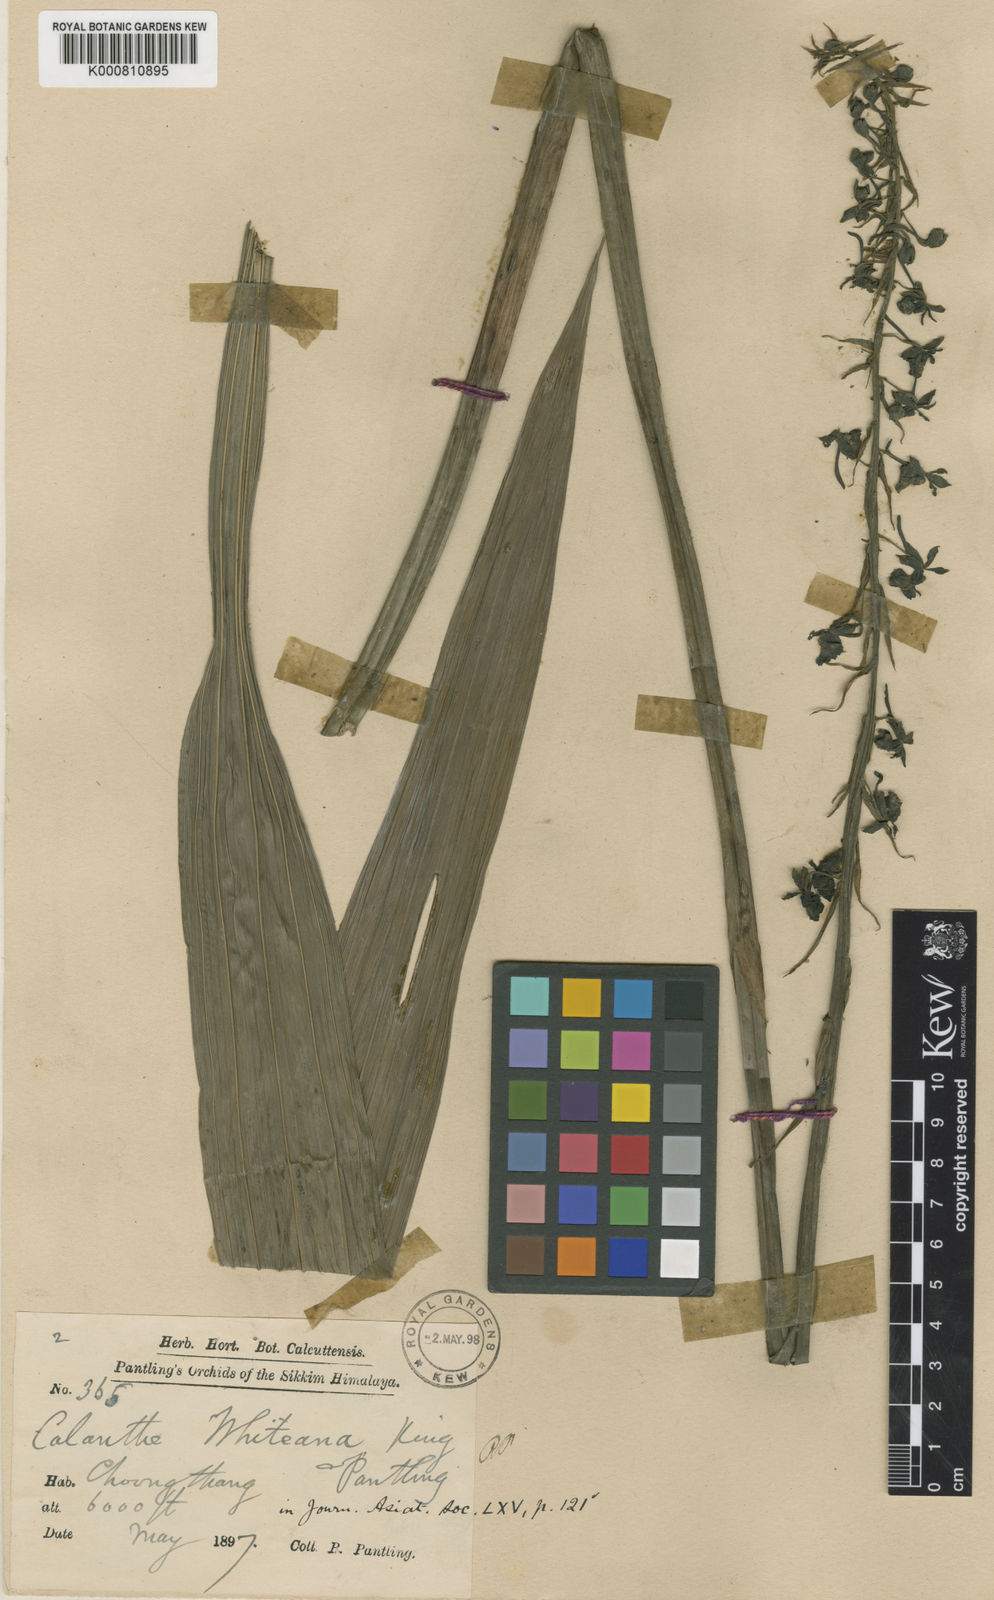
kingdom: Plantae
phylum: Tracheophyta
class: Liliopsida
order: Asparagales
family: Orchidaceae
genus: Calanthe
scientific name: Calanthe whiteana
